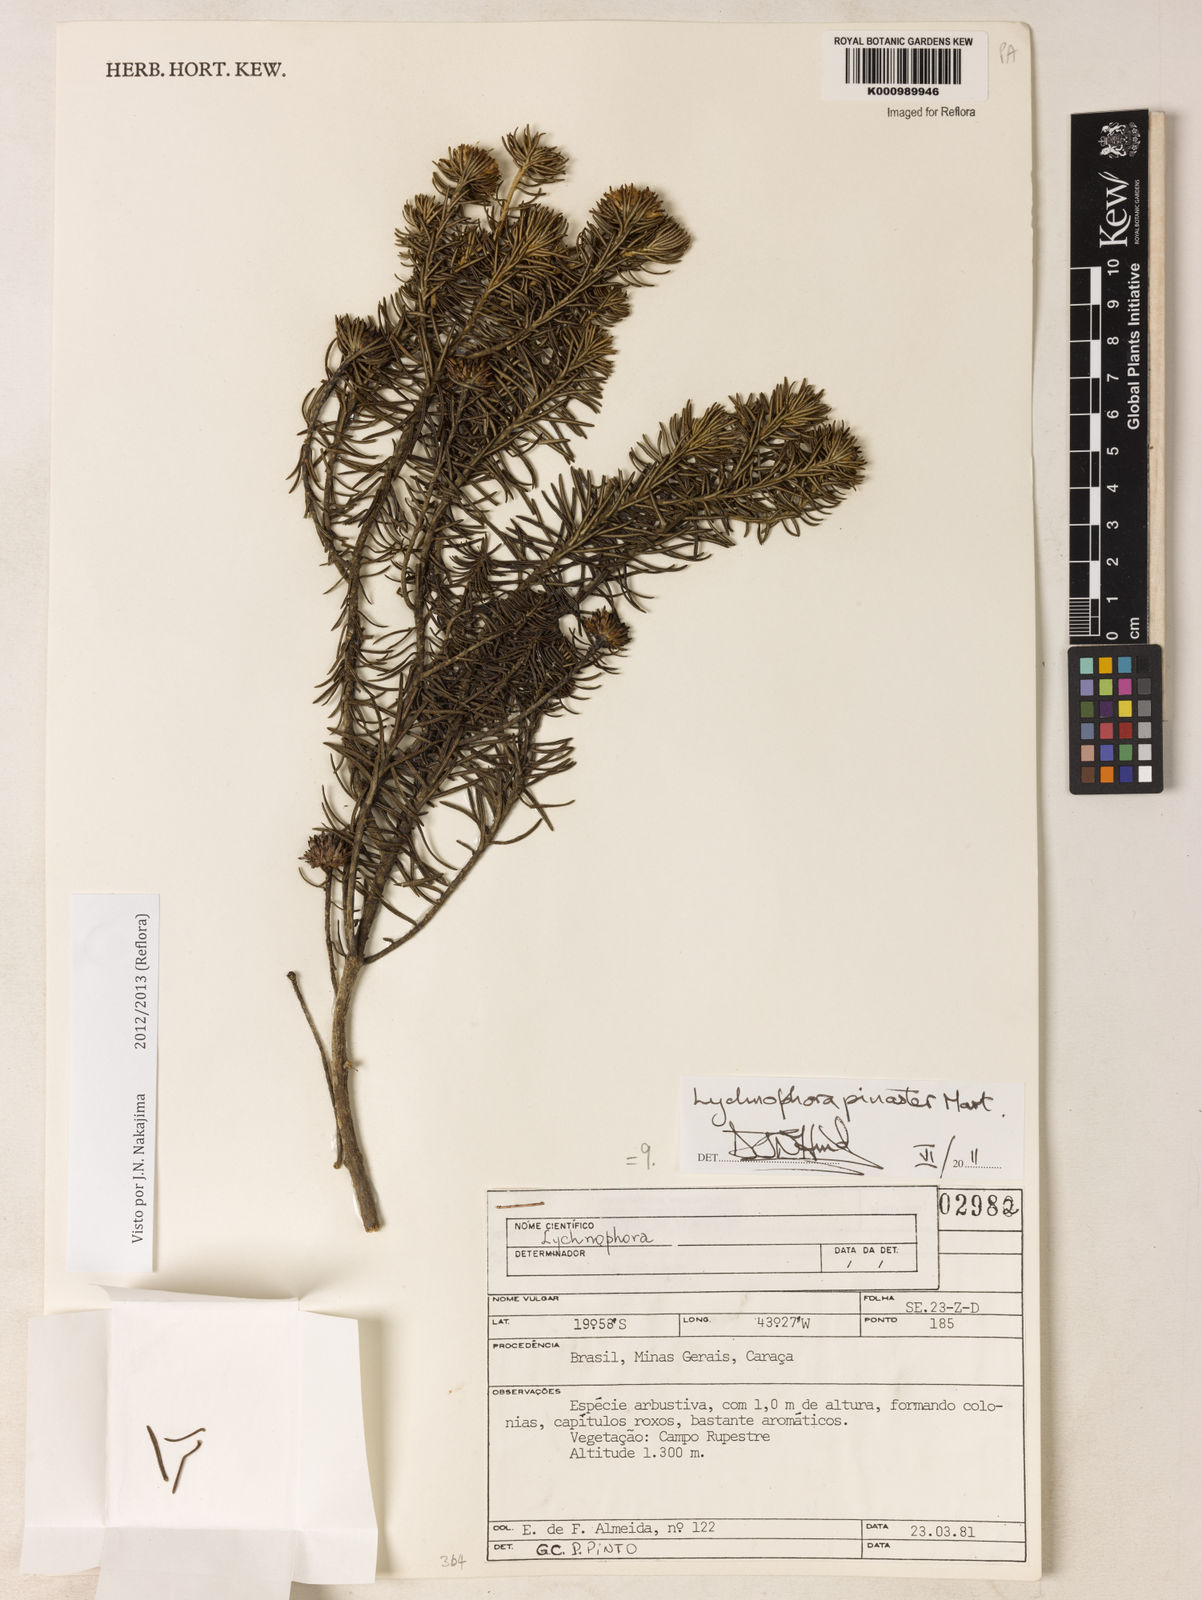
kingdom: Plantae
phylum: Tracheophyta
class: Magnoliopsida
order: Asterales
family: Asteraceae
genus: Lychnophora
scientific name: Lychnophora pinaster
